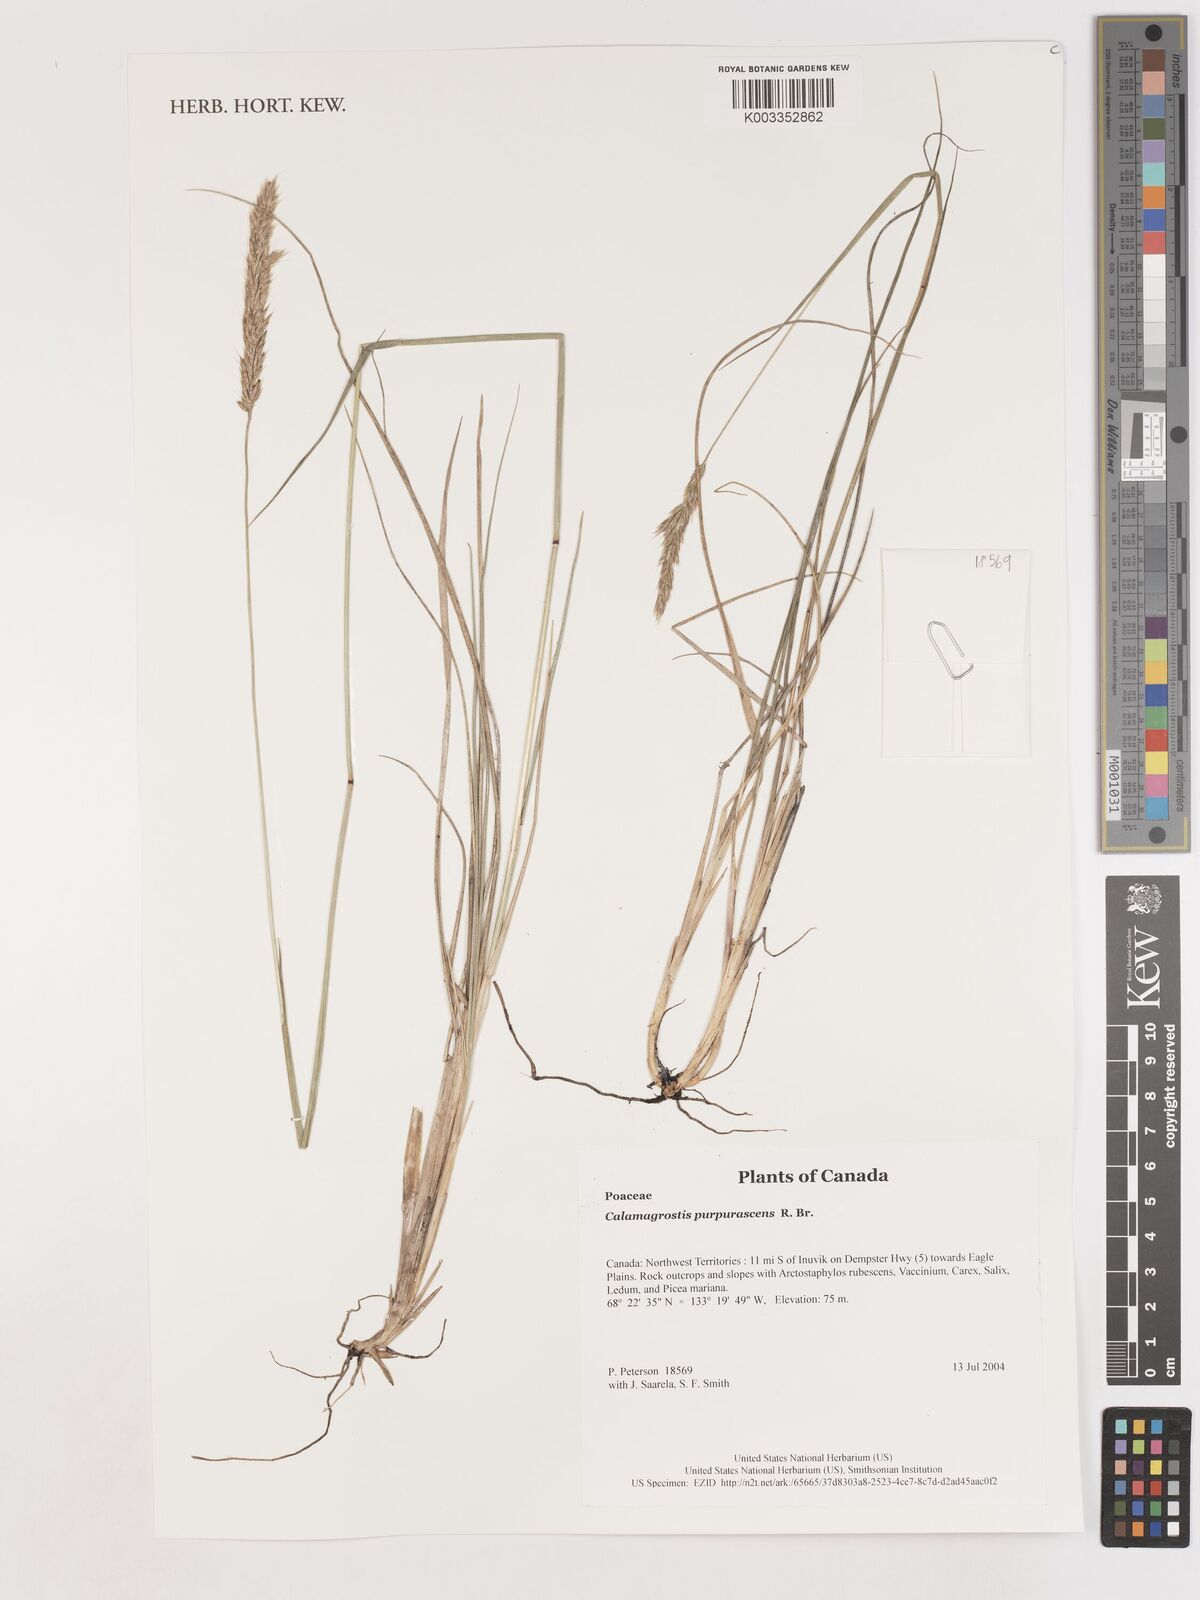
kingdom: Plantae
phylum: Tracheophyta
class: Liliopsida
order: Poales
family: Poaceae
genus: Calamagrostis
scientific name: Calamagrostis purpurascens
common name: Purple reedgrass
